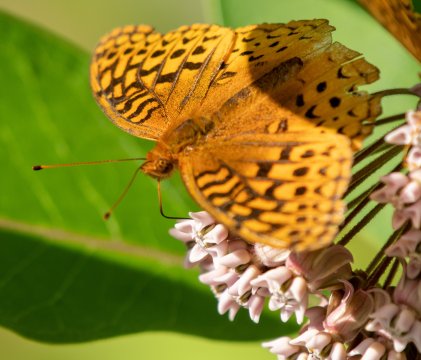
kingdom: Animalia
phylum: Arthropoda
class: Insecta
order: Lepidoptera
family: Nymphalidae
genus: Speyeria
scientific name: Speyeria cybele
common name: Great Spangled Fritillary
